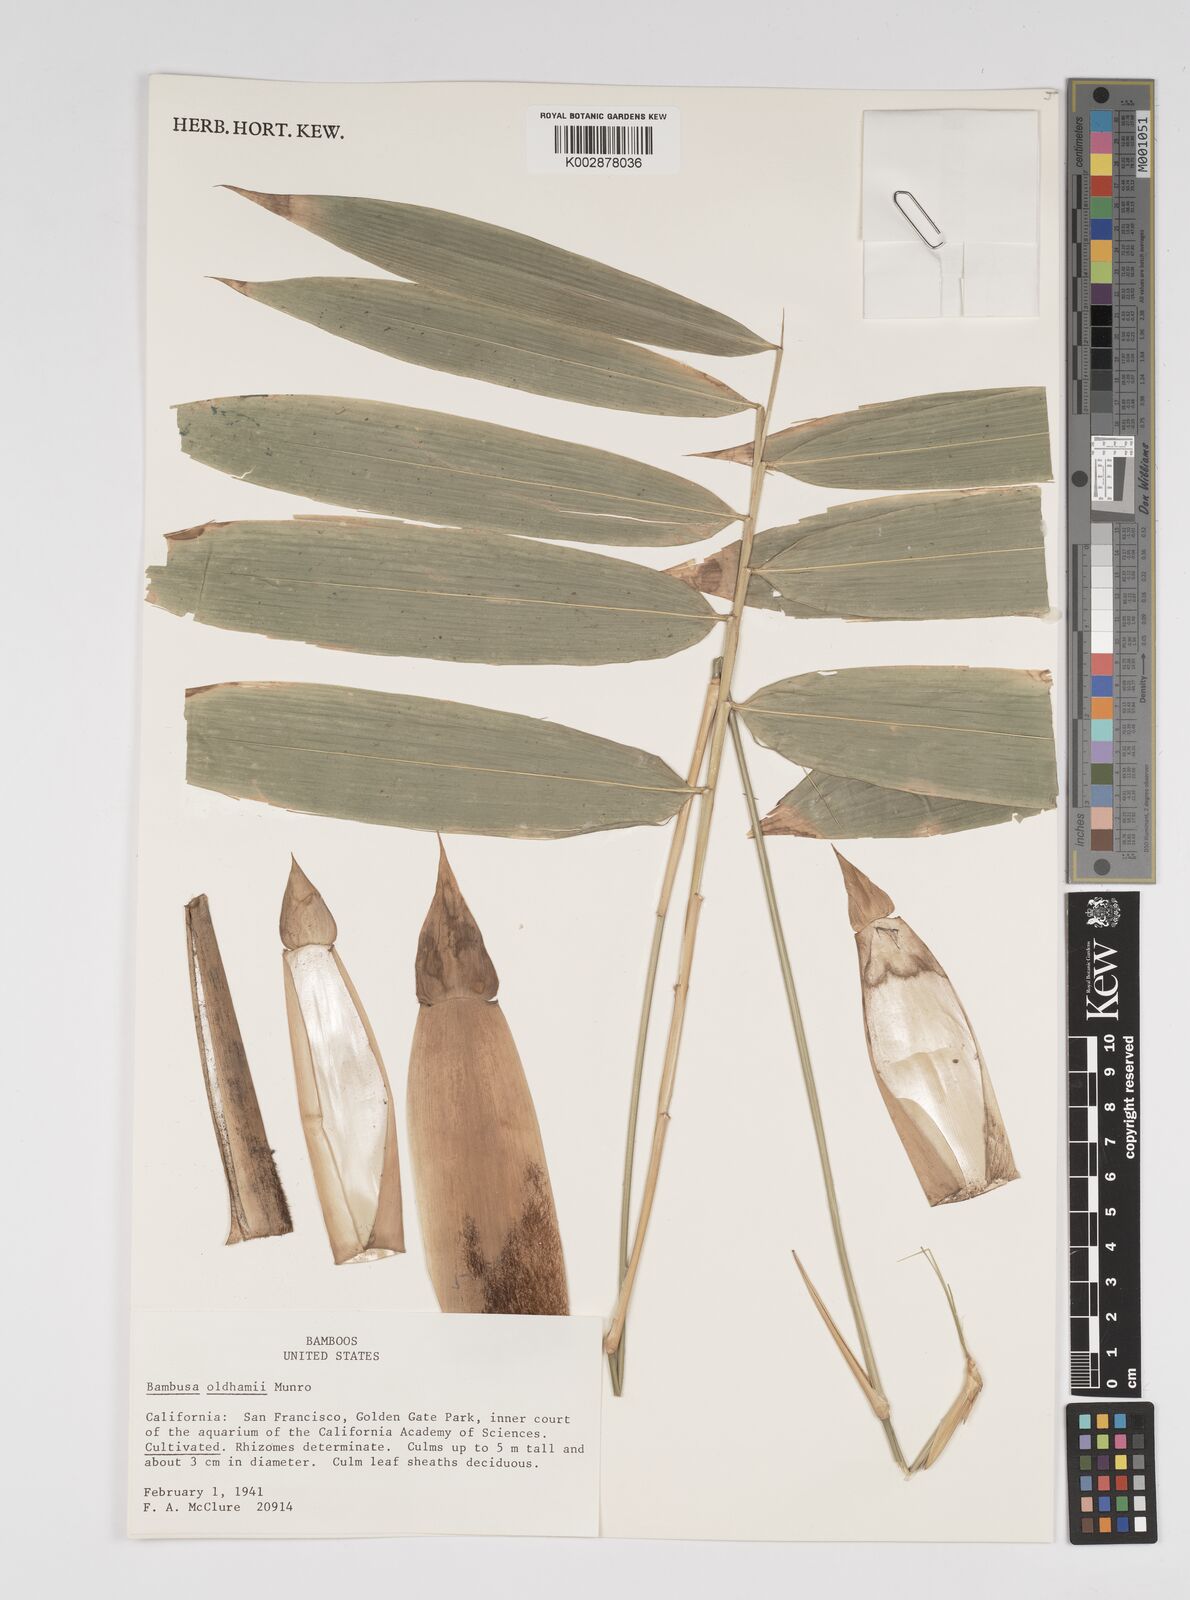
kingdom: Plantae
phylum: Tracheophyta
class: Liliopsida
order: Poales
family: Poaceae
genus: Bambusa
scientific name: Bambusa oldhamii
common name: Giant timber bamboo
